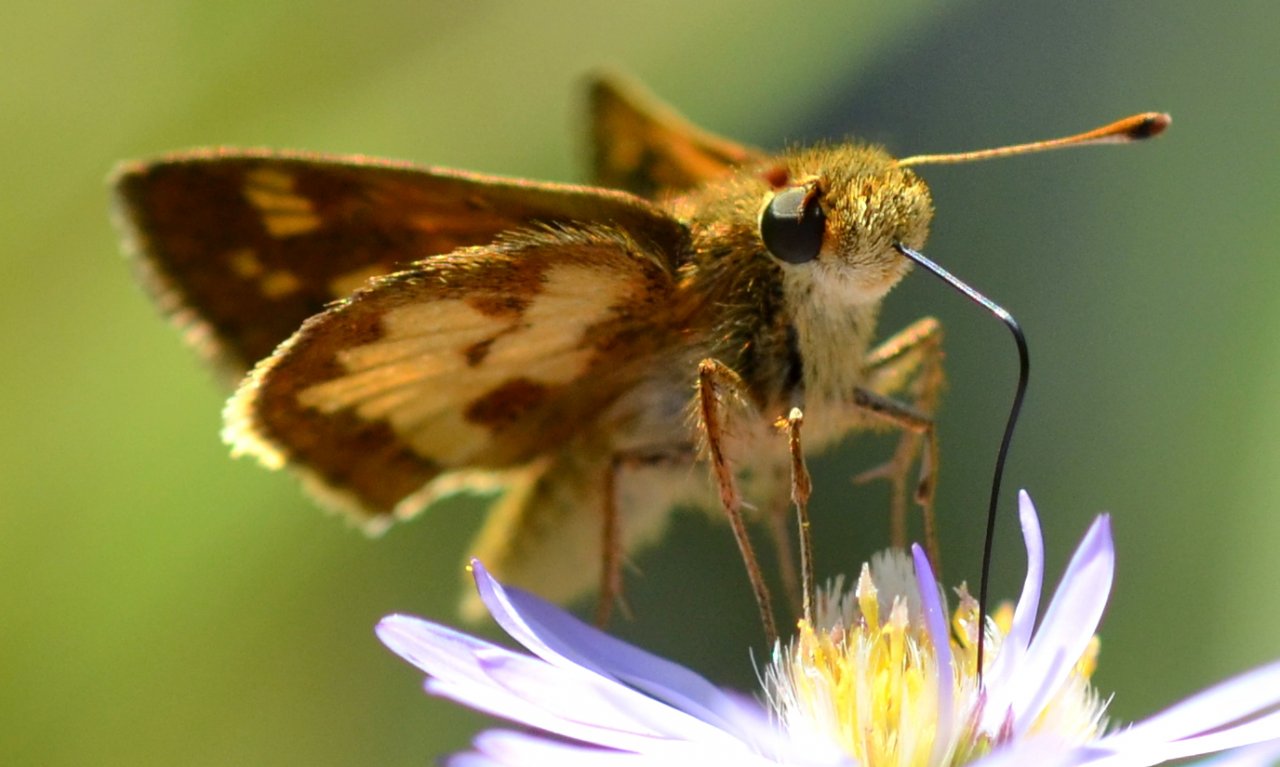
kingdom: Animalia
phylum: Arthropoda
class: Insecta
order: Lepidoptera
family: Hesperiidae
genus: Polites
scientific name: Polites coras
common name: Peck's Skipper
